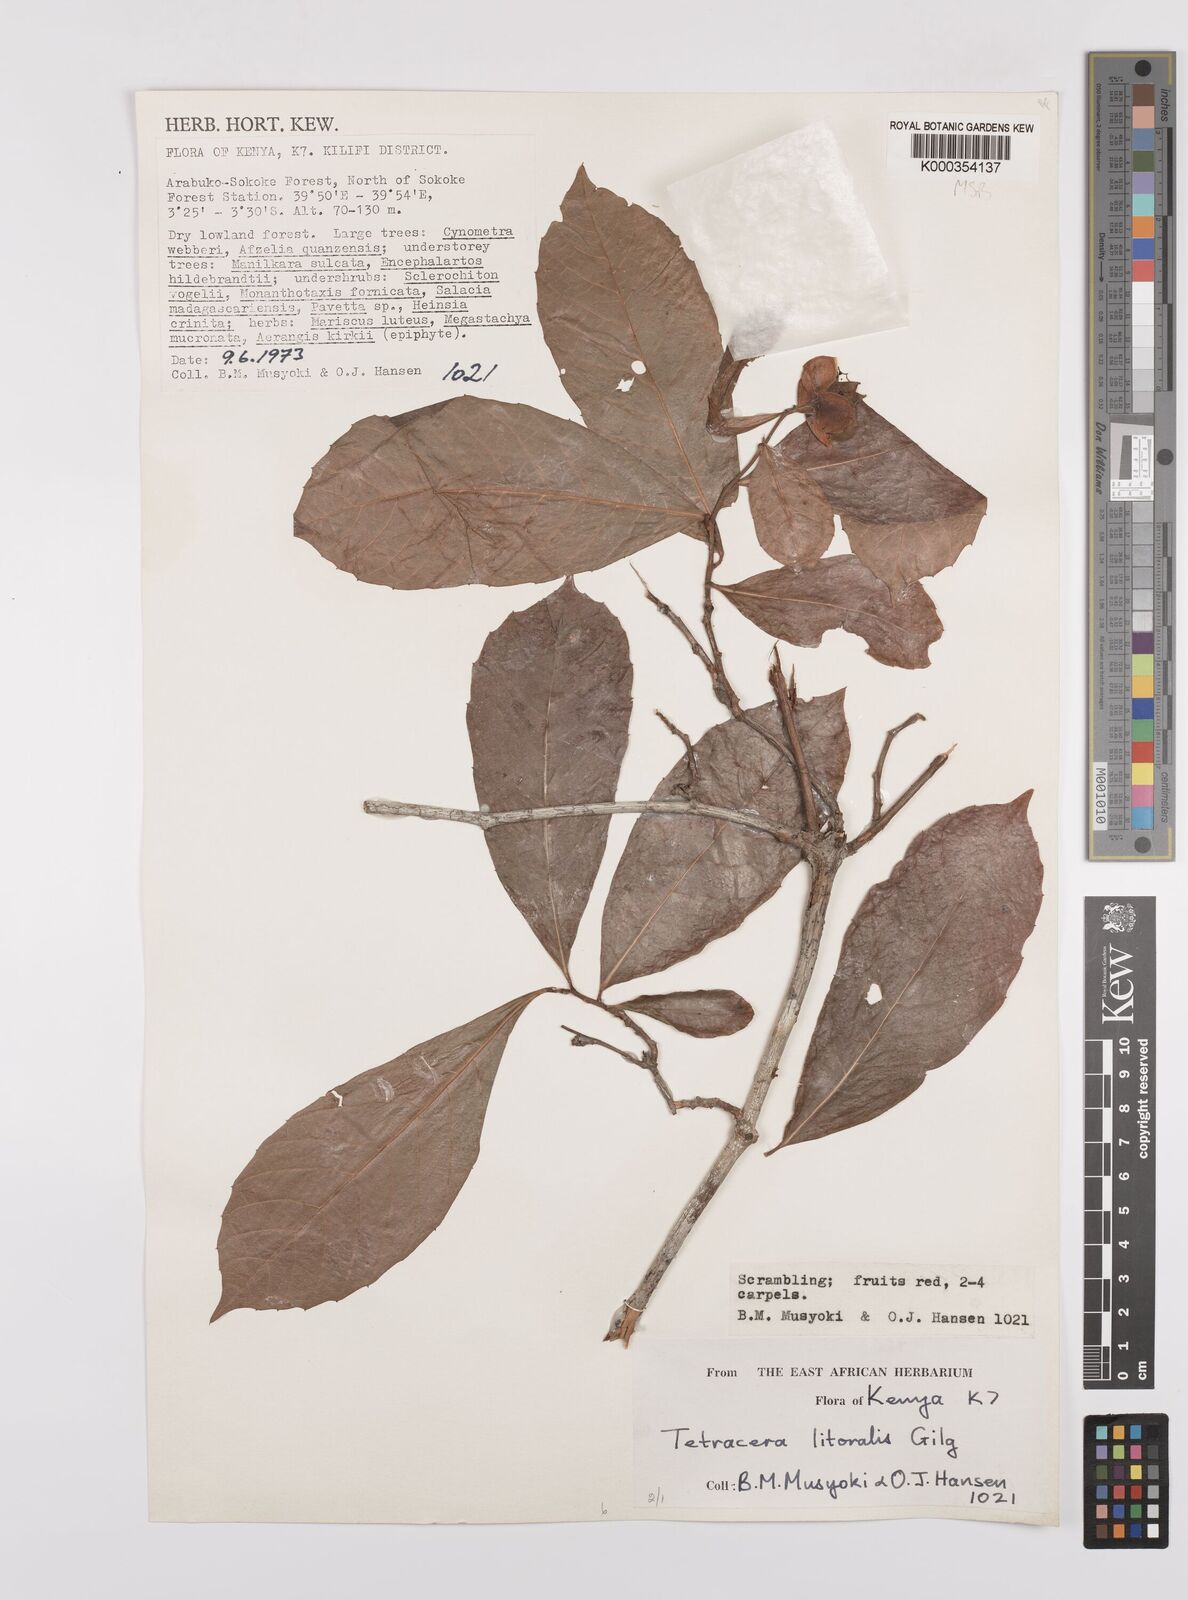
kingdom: Plantae
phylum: Tracheophyta
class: Magnoliopsida
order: Dilleniales
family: Dilleniaceae
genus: Tetracera
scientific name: Tetracera litoralis
